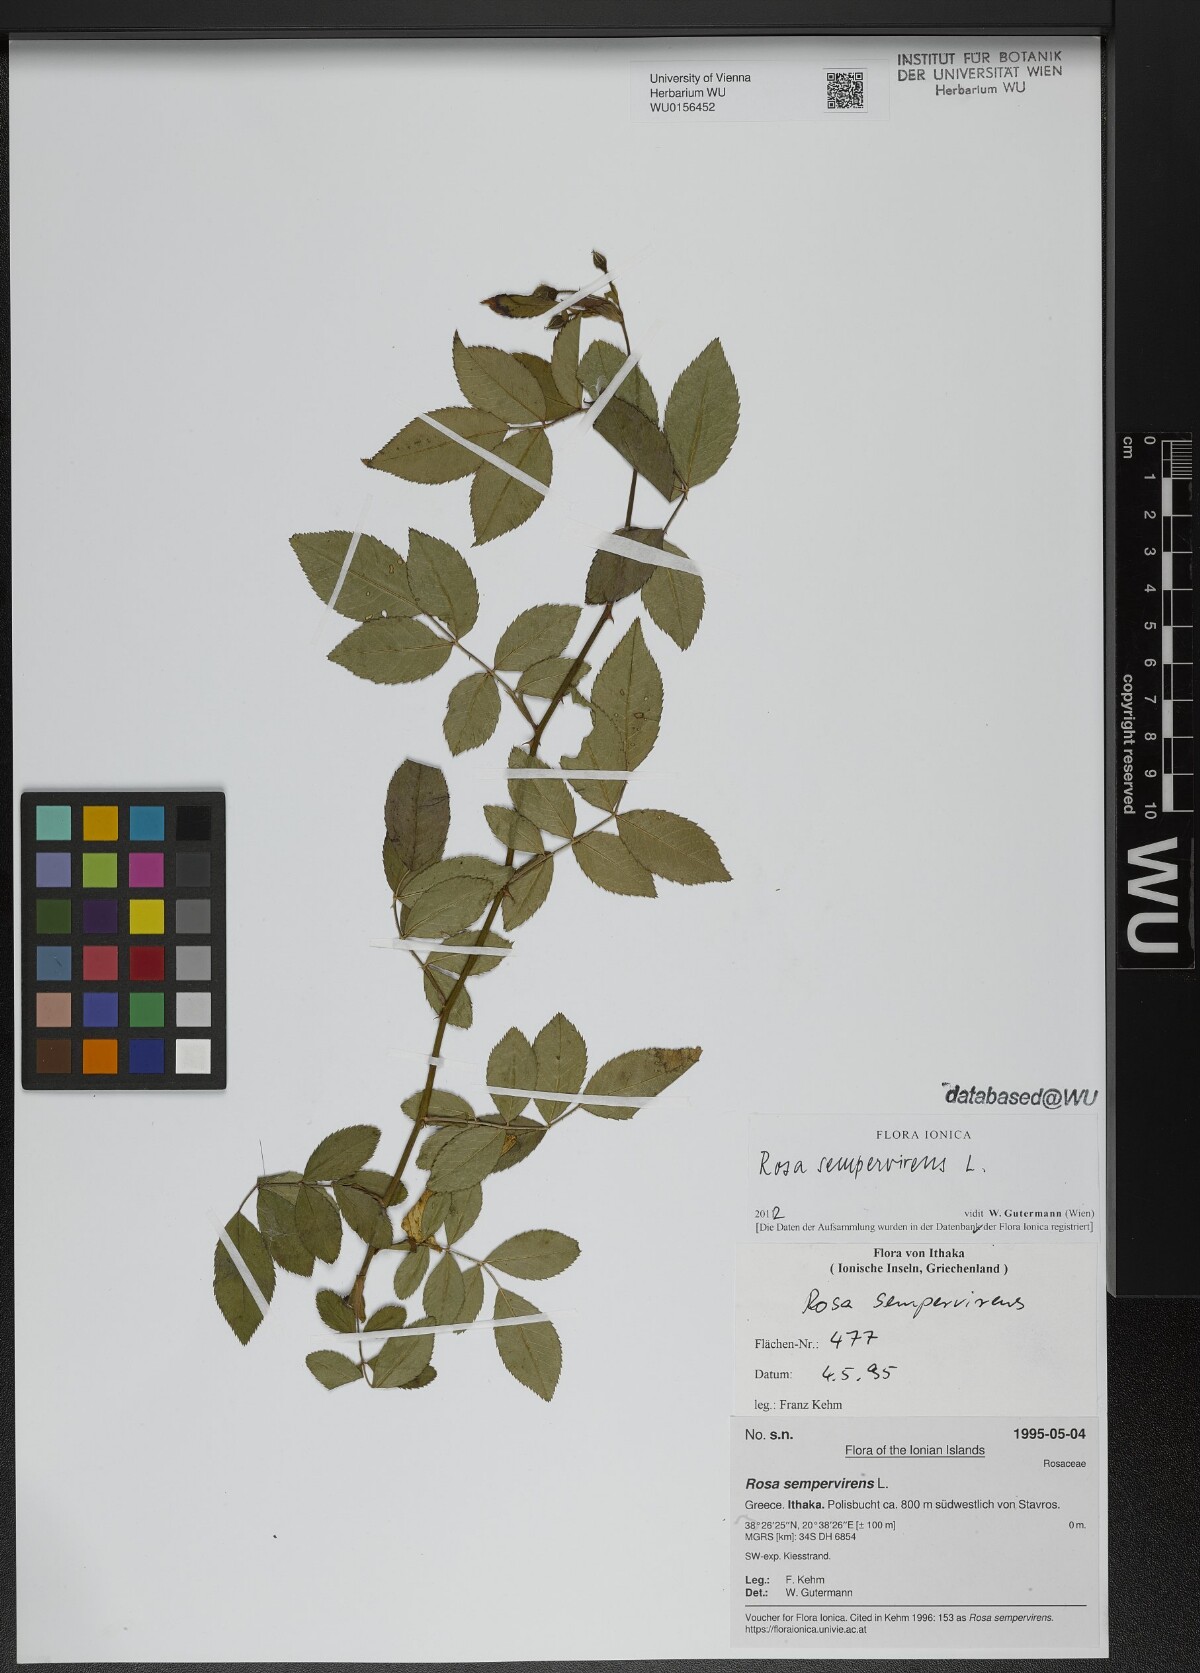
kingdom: Plantae
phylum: Tracheophyta
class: Magnoliopsida
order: Rosales
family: Rosaceae
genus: Rosa
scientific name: Rosa sempervirens
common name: Evergreen rose
